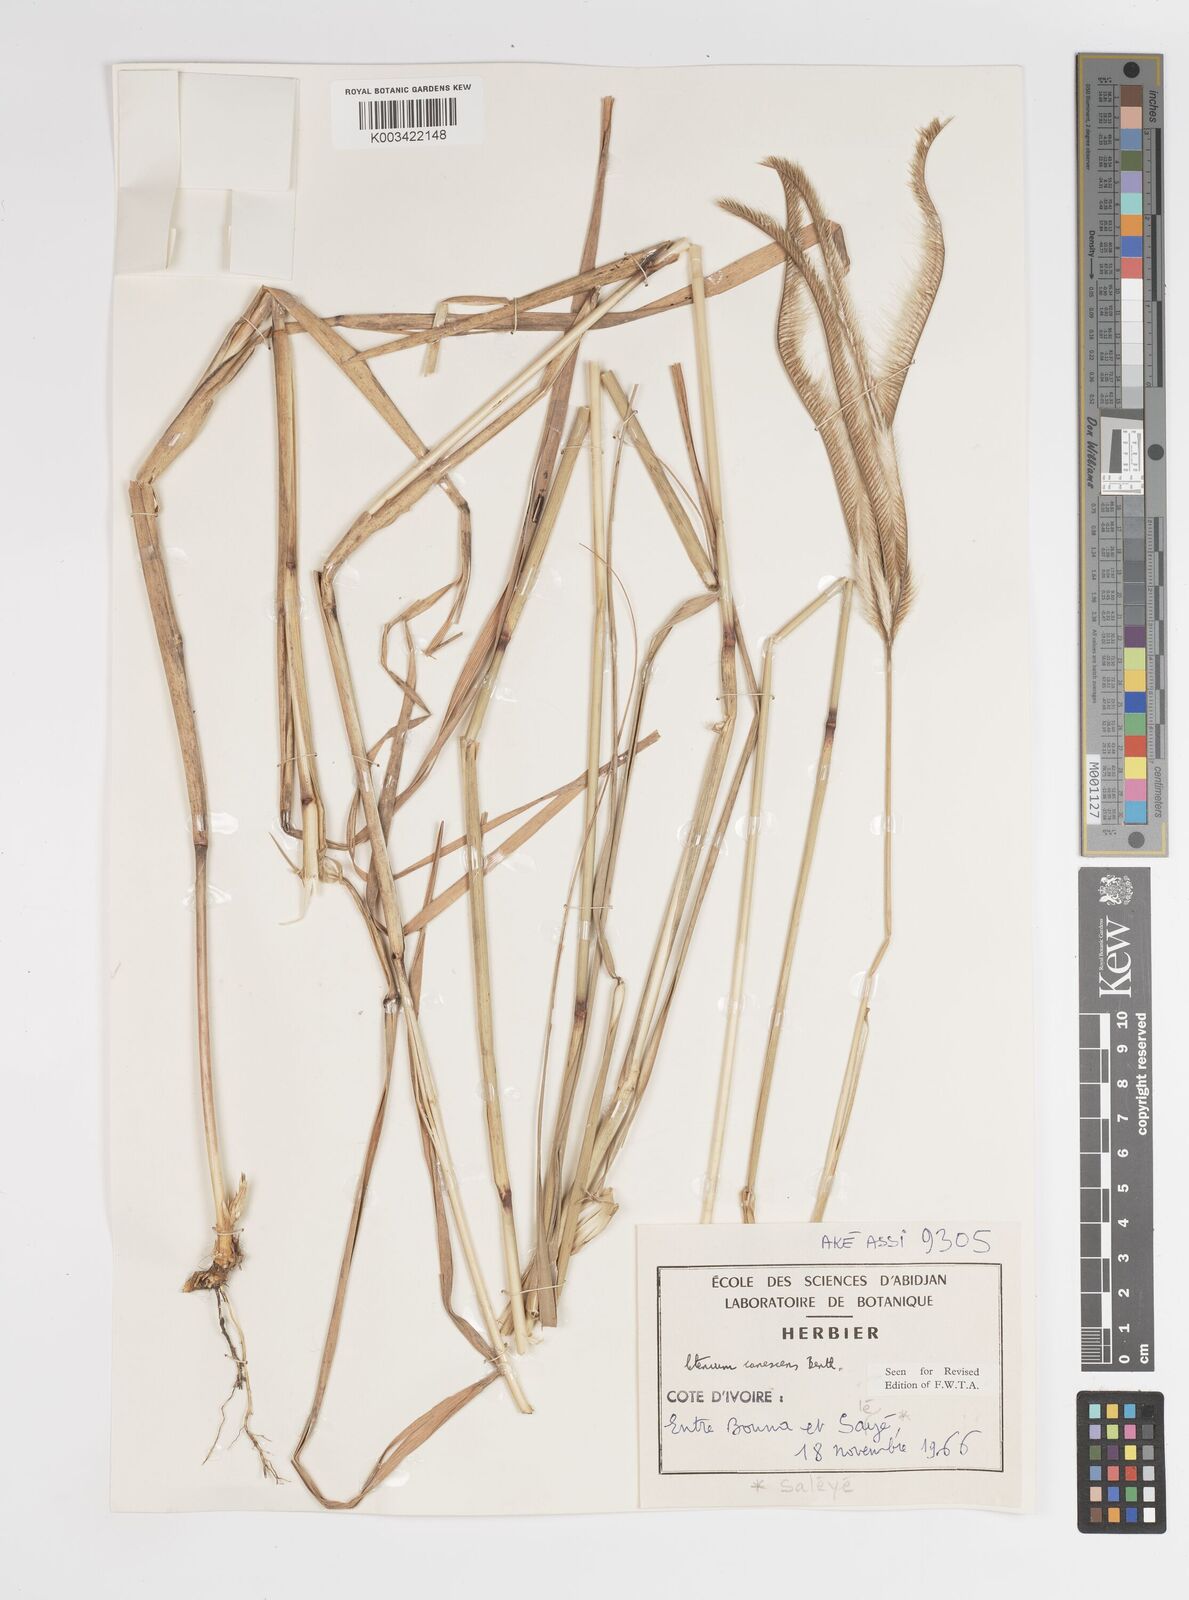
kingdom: Plantae
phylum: Tracheophyta
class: Liliopsida
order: Poales
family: Poaceae
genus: Ctenium
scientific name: Ctenium canescens
